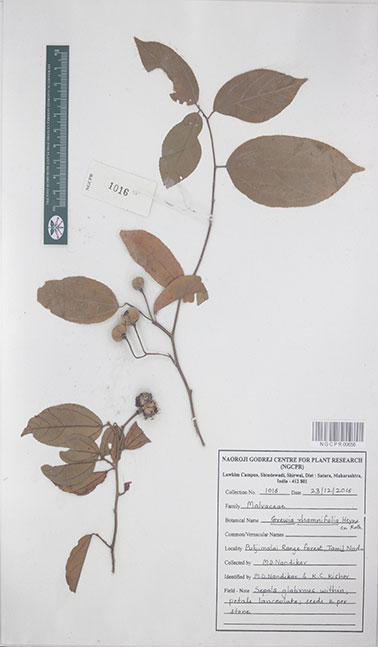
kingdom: Plantae
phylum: Tracheophyta
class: Magnoliopsida
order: Malvales
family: Malvaceae
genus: Grewia
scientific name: Grewia rhamnifolia
